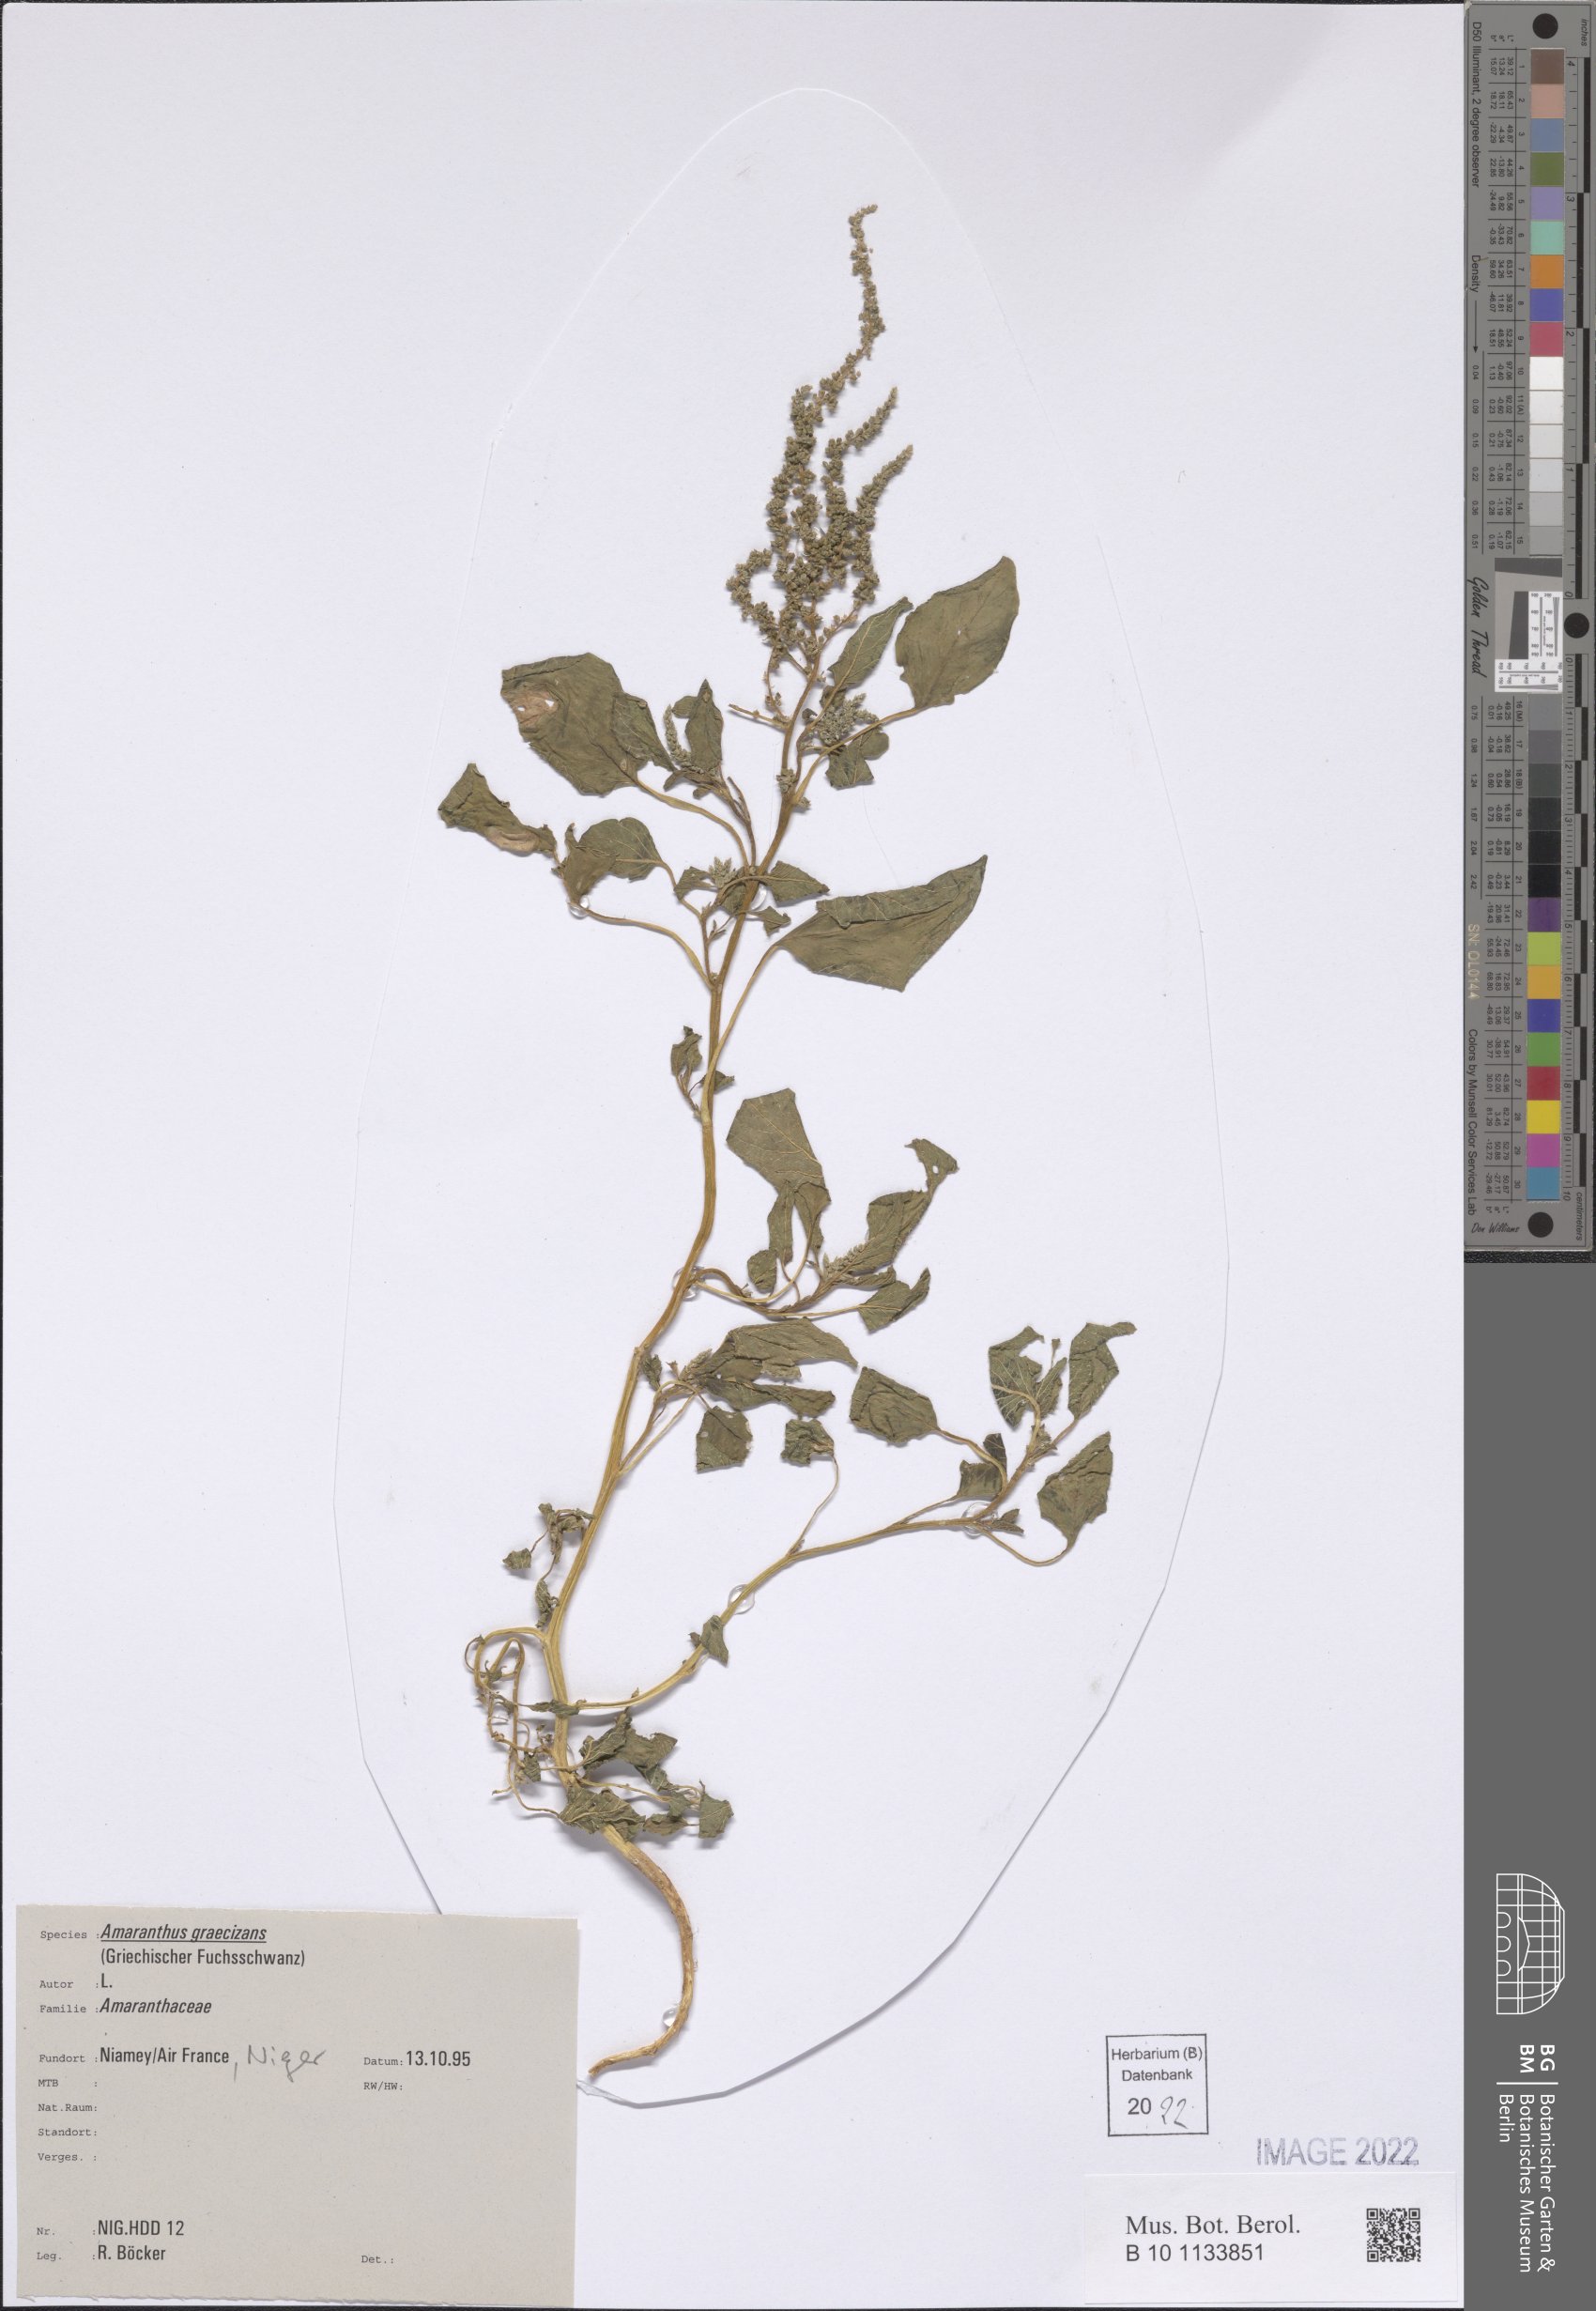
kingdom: Plantae
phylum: Tracheophyta
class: Magnoliopsida
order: Caryophyllales
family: Amaranthaceae
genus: Amaranthus
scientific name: Amaranthus graecizans
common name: Mediterranean amaranth
